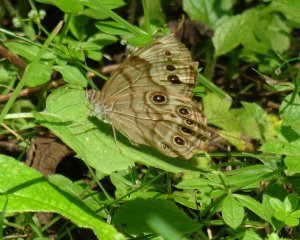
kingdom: Animalia
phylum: Arthropoda
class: Insecta
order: Lepidoptera
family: Nymphalidae
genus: Lethe
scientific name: Lethe anthedon
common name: Northern Pearly-Eye
